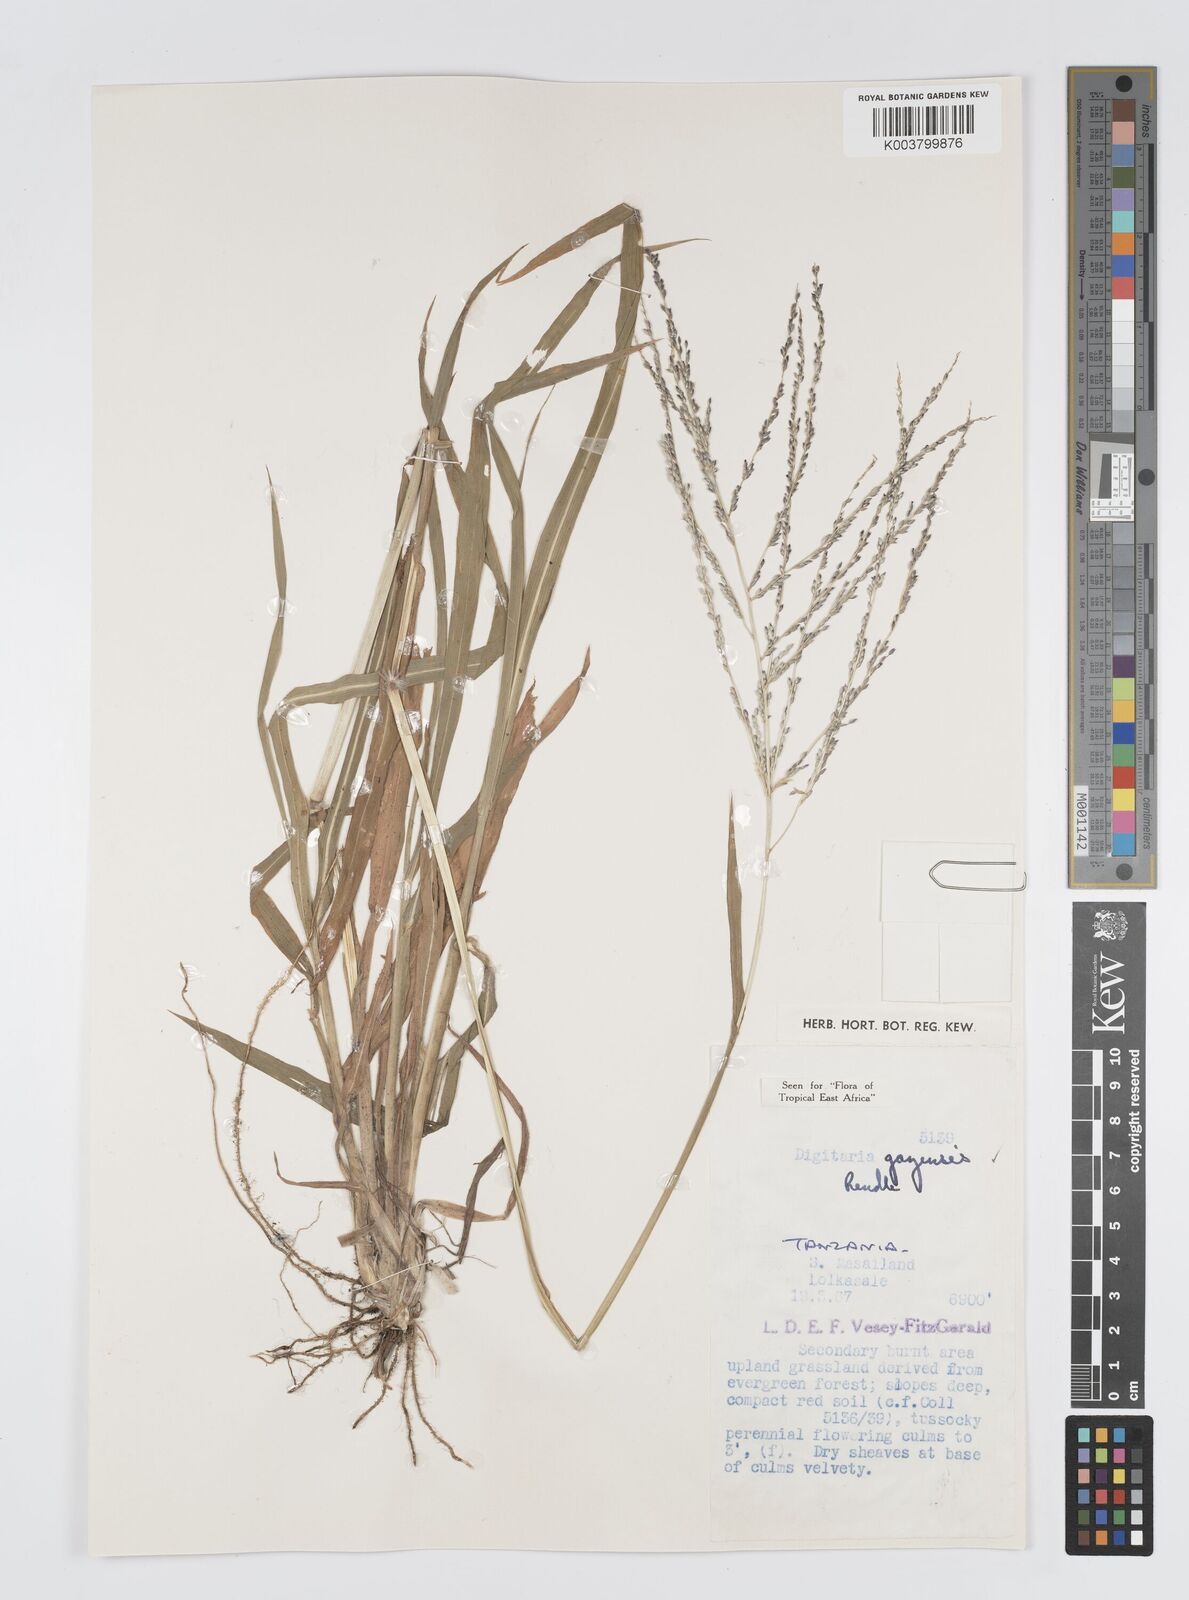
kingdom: Plantae
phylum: Tracheophyta
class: Liliopsida
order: Poales
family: Poaceae
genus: Digitaria
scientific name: Digitaria gazensis
